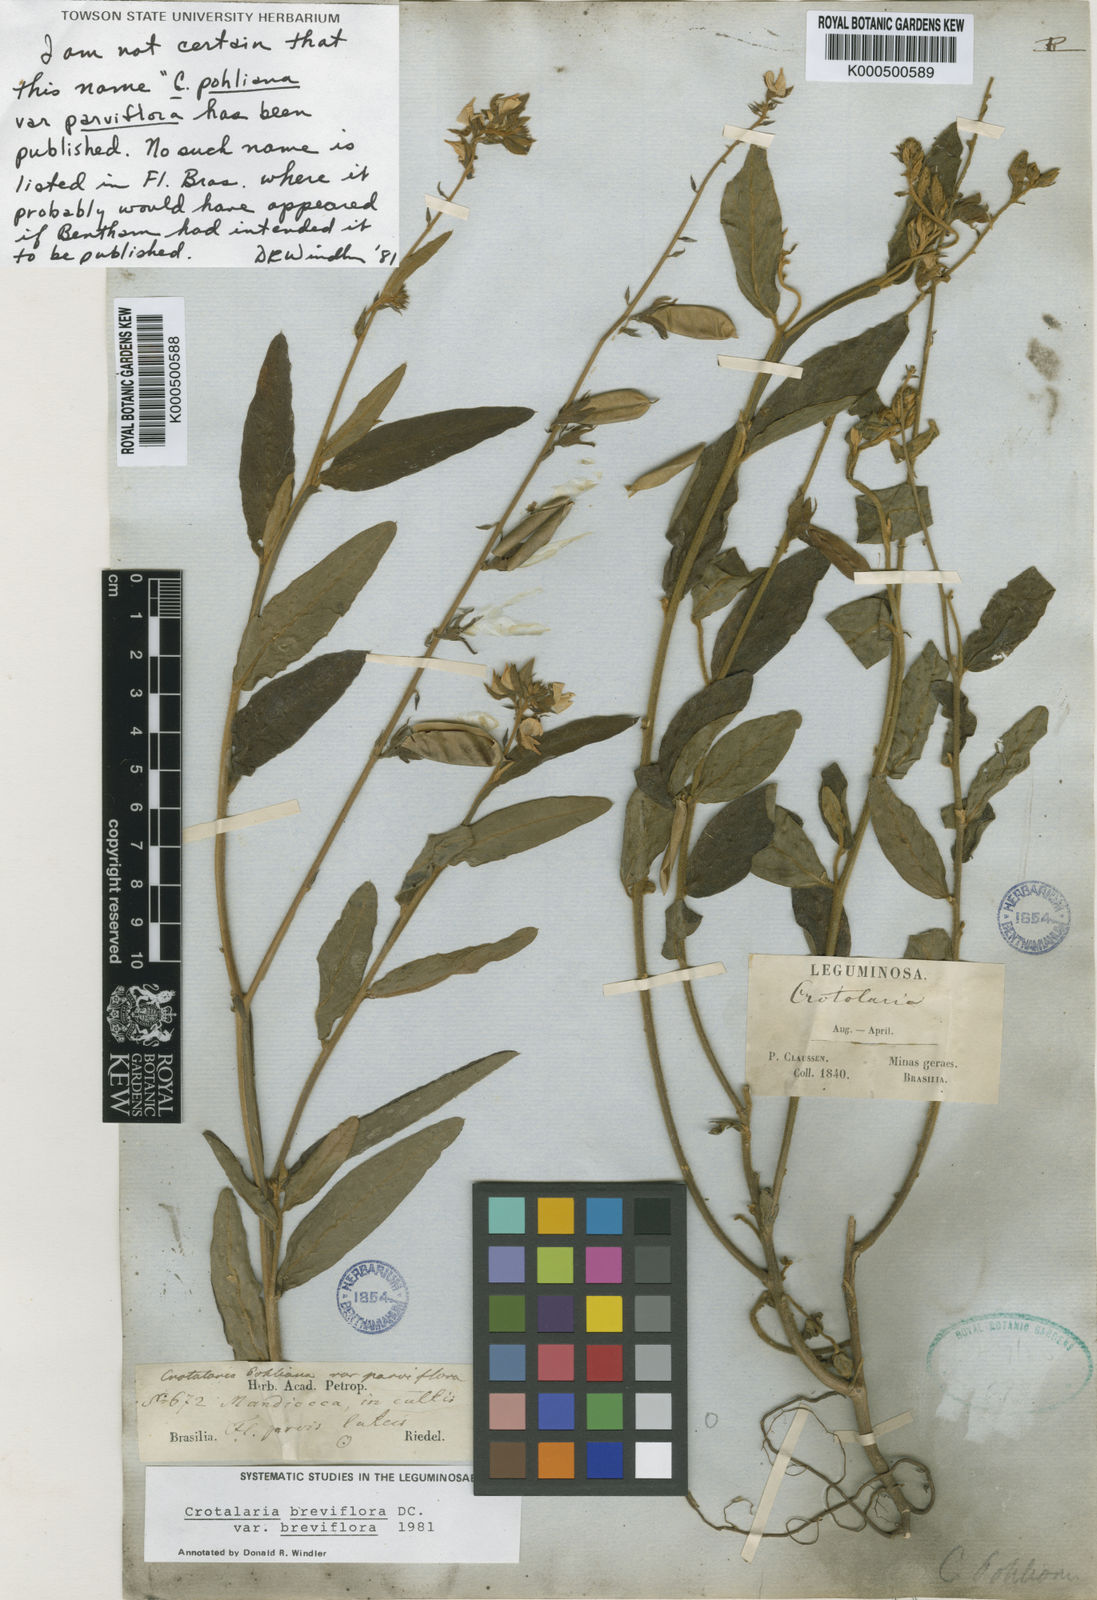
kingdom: Plantae
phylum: Tracheophyta
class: Magnoliopsida
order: Fabales
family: Fabaceae
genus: Crotalaria
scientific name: Crotalaria breviflora
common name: Short-flower crotalaria
